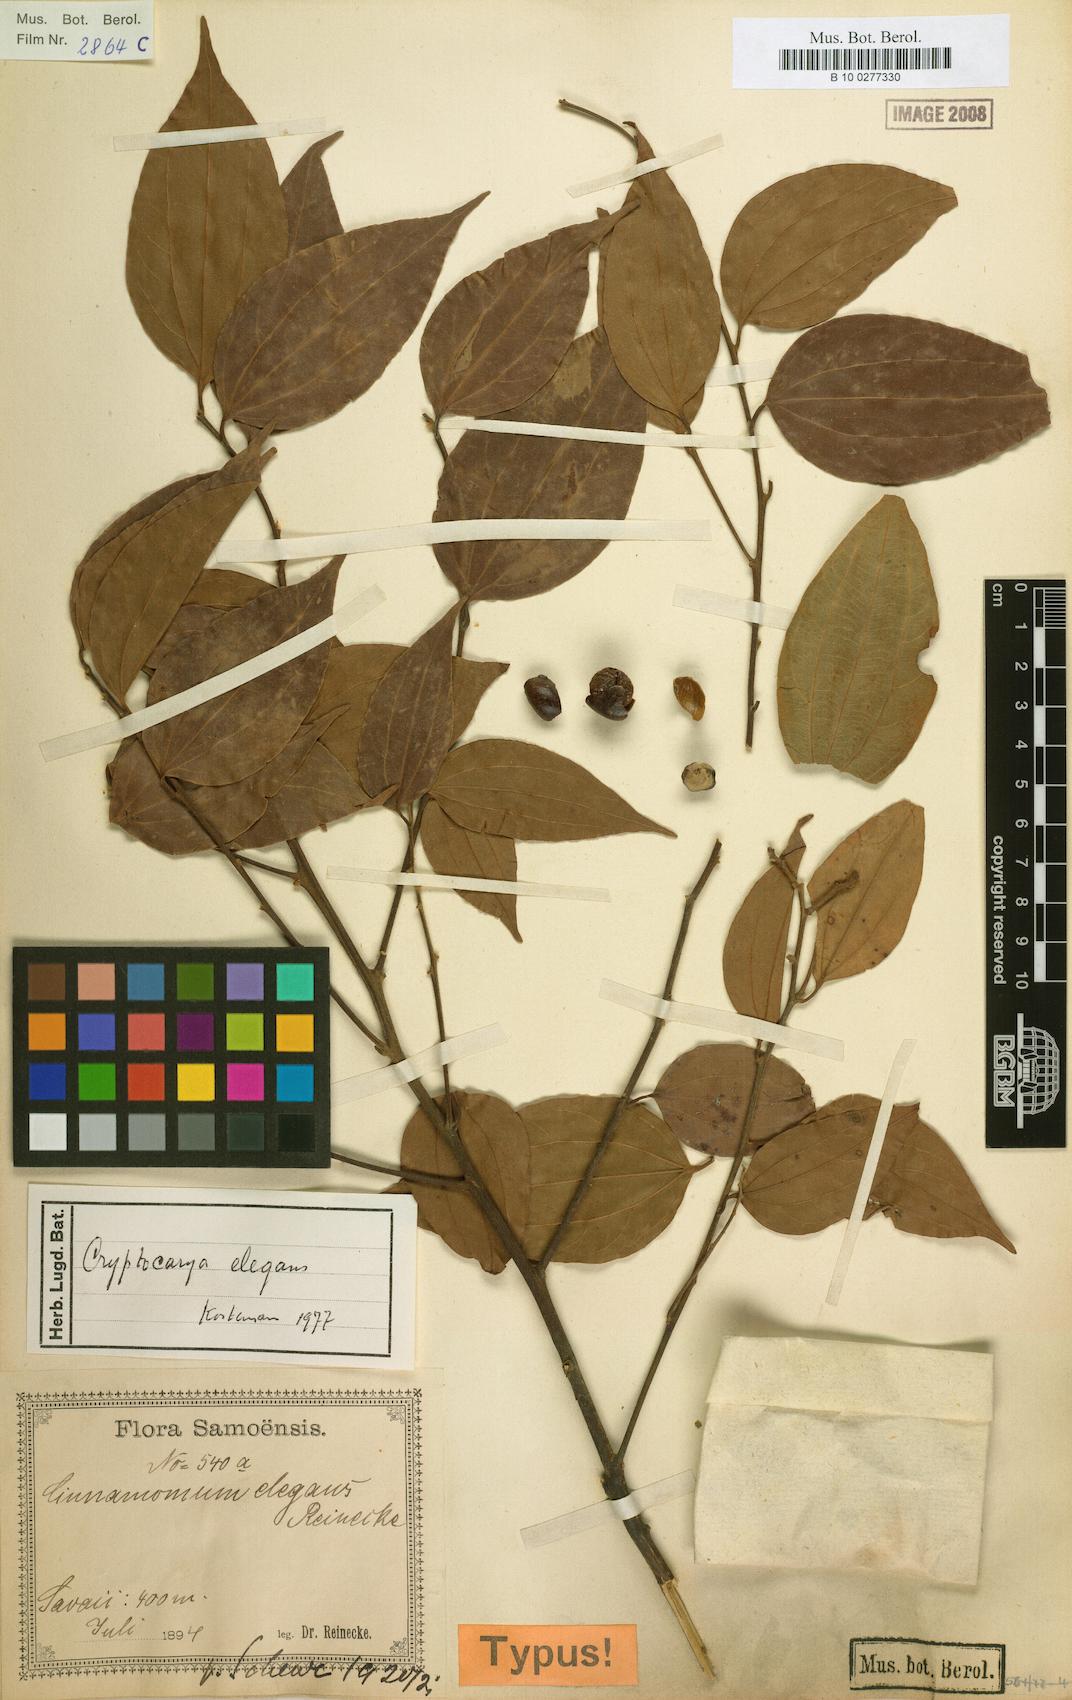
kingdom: Plantae
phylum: Tracheophyta
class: Magnoliopsida
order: Laurales
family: Lauraceae
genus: Cryptocarya
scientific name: Cryptocarya elegans
